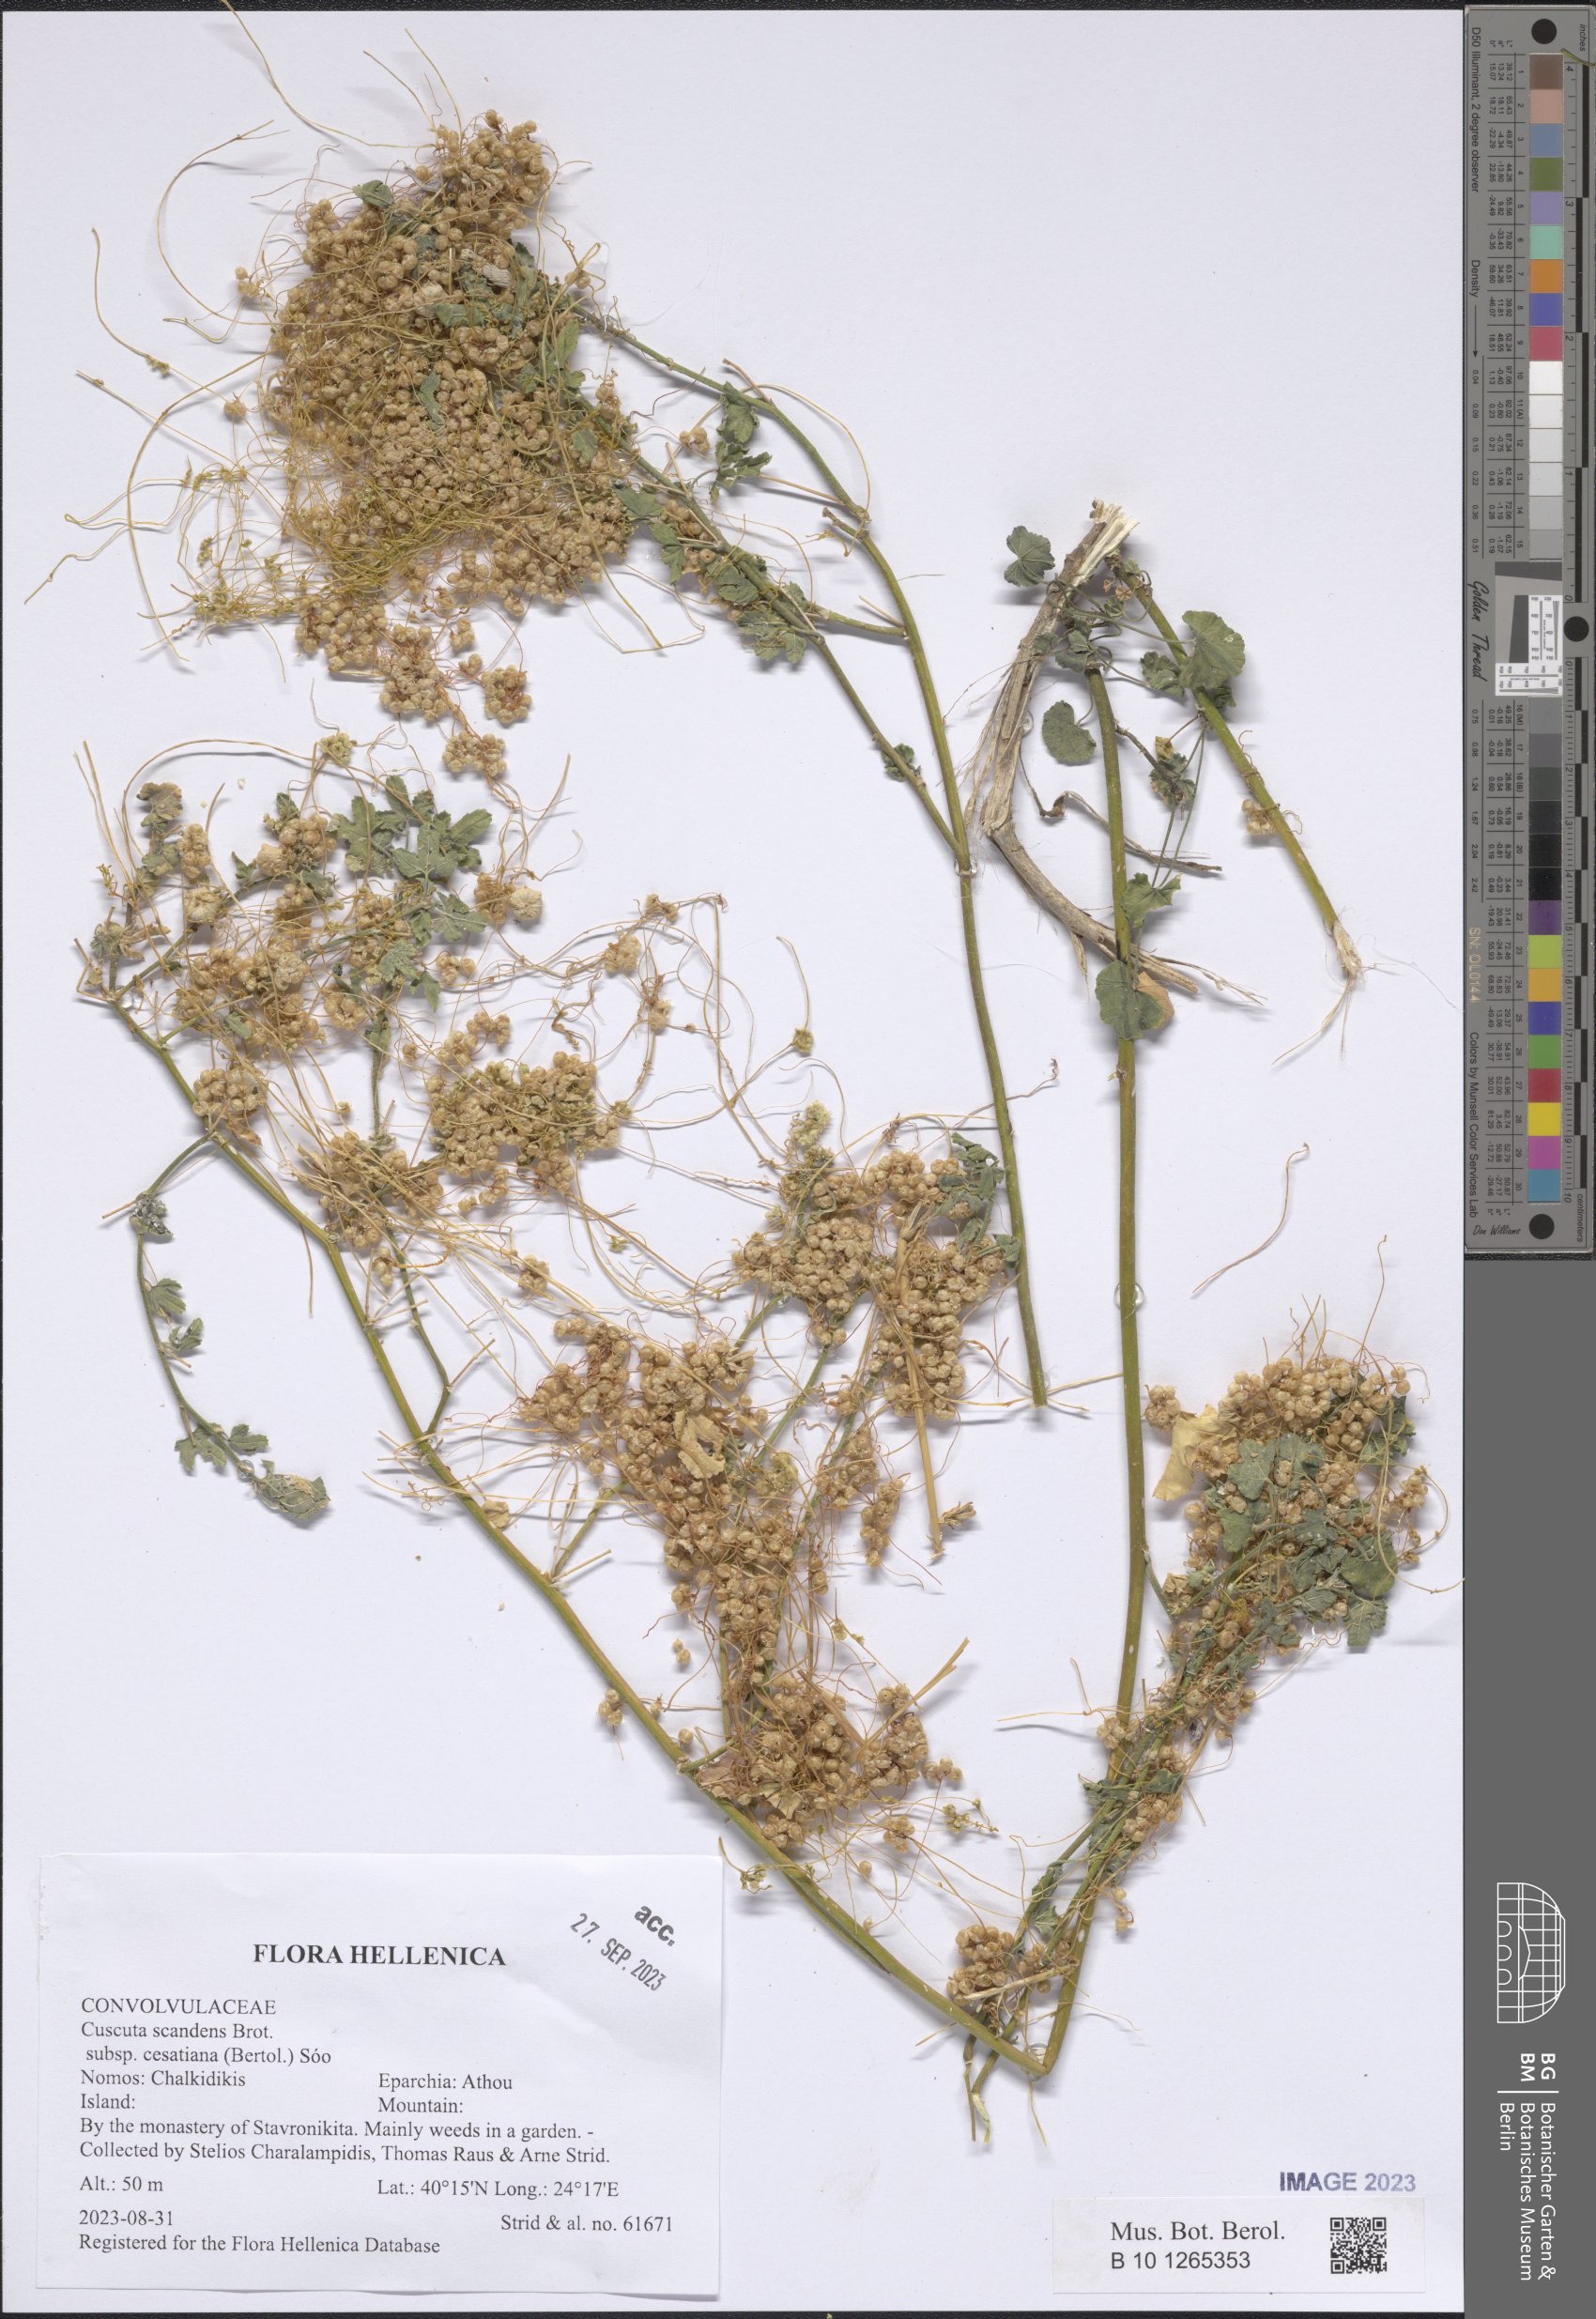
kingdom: Plantae
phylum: Tracheophyta
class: Magnoliopsida
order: Solanales
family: Convolvulaceae
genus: Cuscuta
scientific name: Cuscuta australis
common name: Australian dodder
